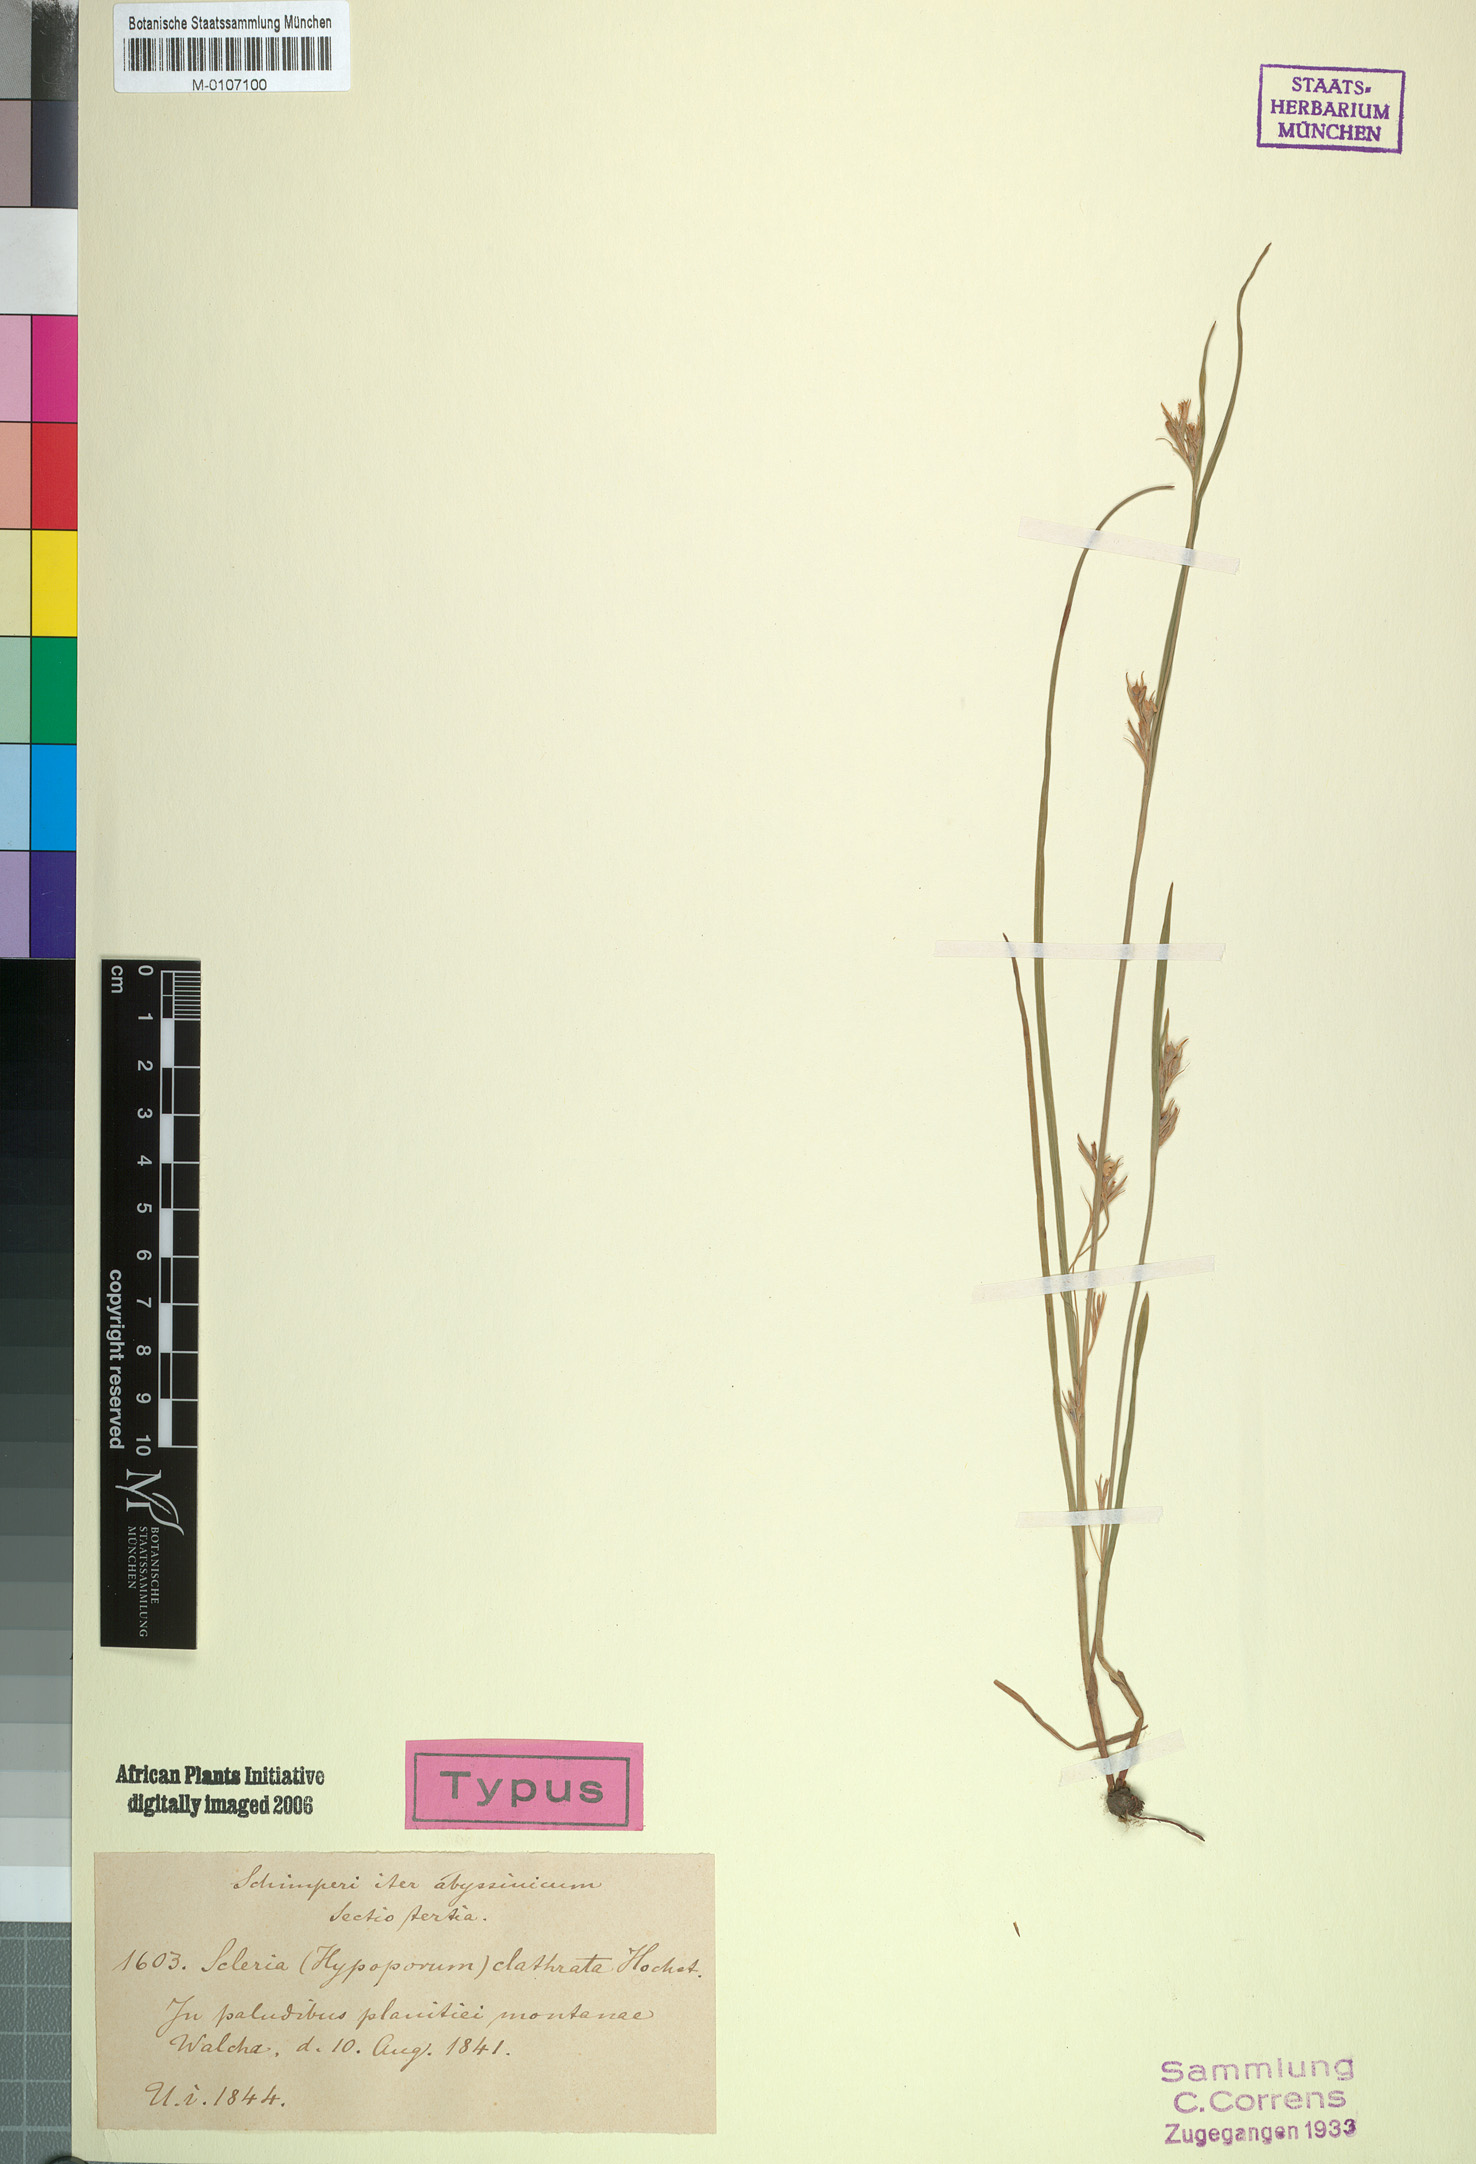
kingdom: Plantae
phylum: Tracheophyta
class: Liliopsida
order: Poales
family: Cyperaceae
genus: Scleria
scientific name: Scleria clathrata
